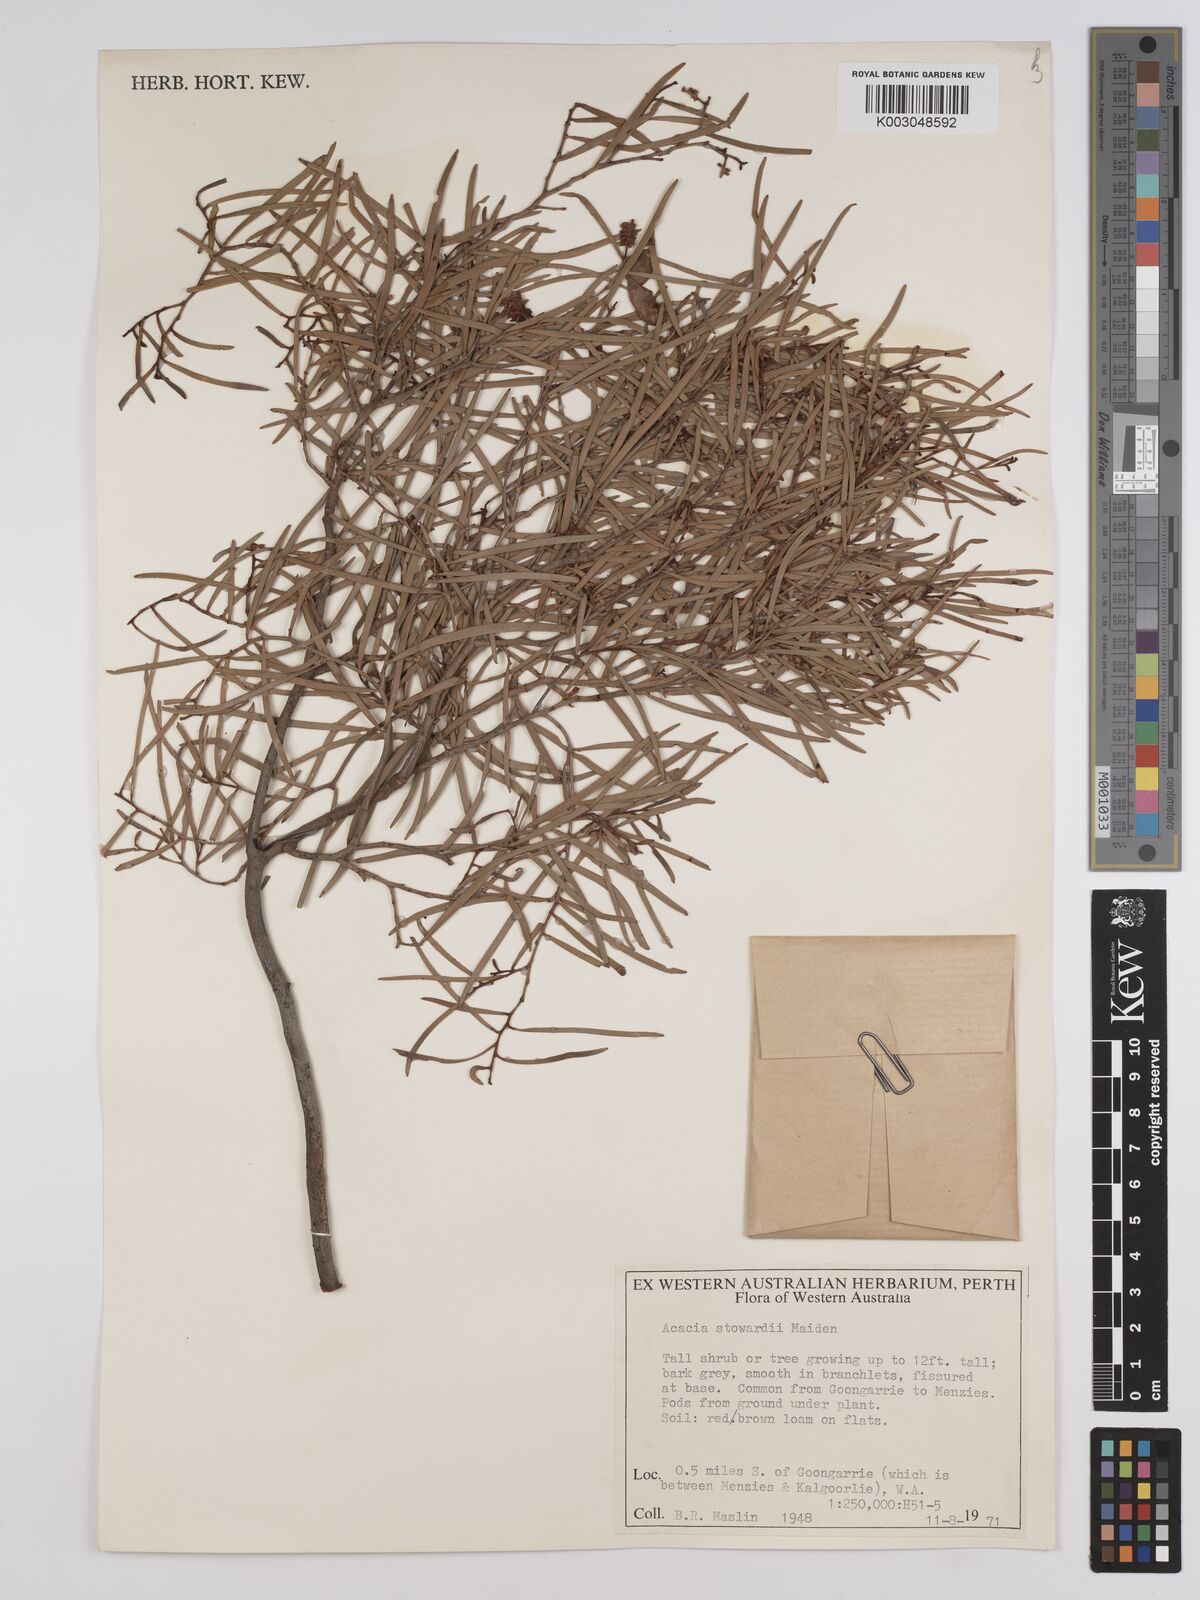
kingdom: Plantae
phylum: Tracheophyta
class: Magnoliopsida
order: Fabales
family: Fabaceae
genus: Acacia
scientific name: Acacia sibirica
